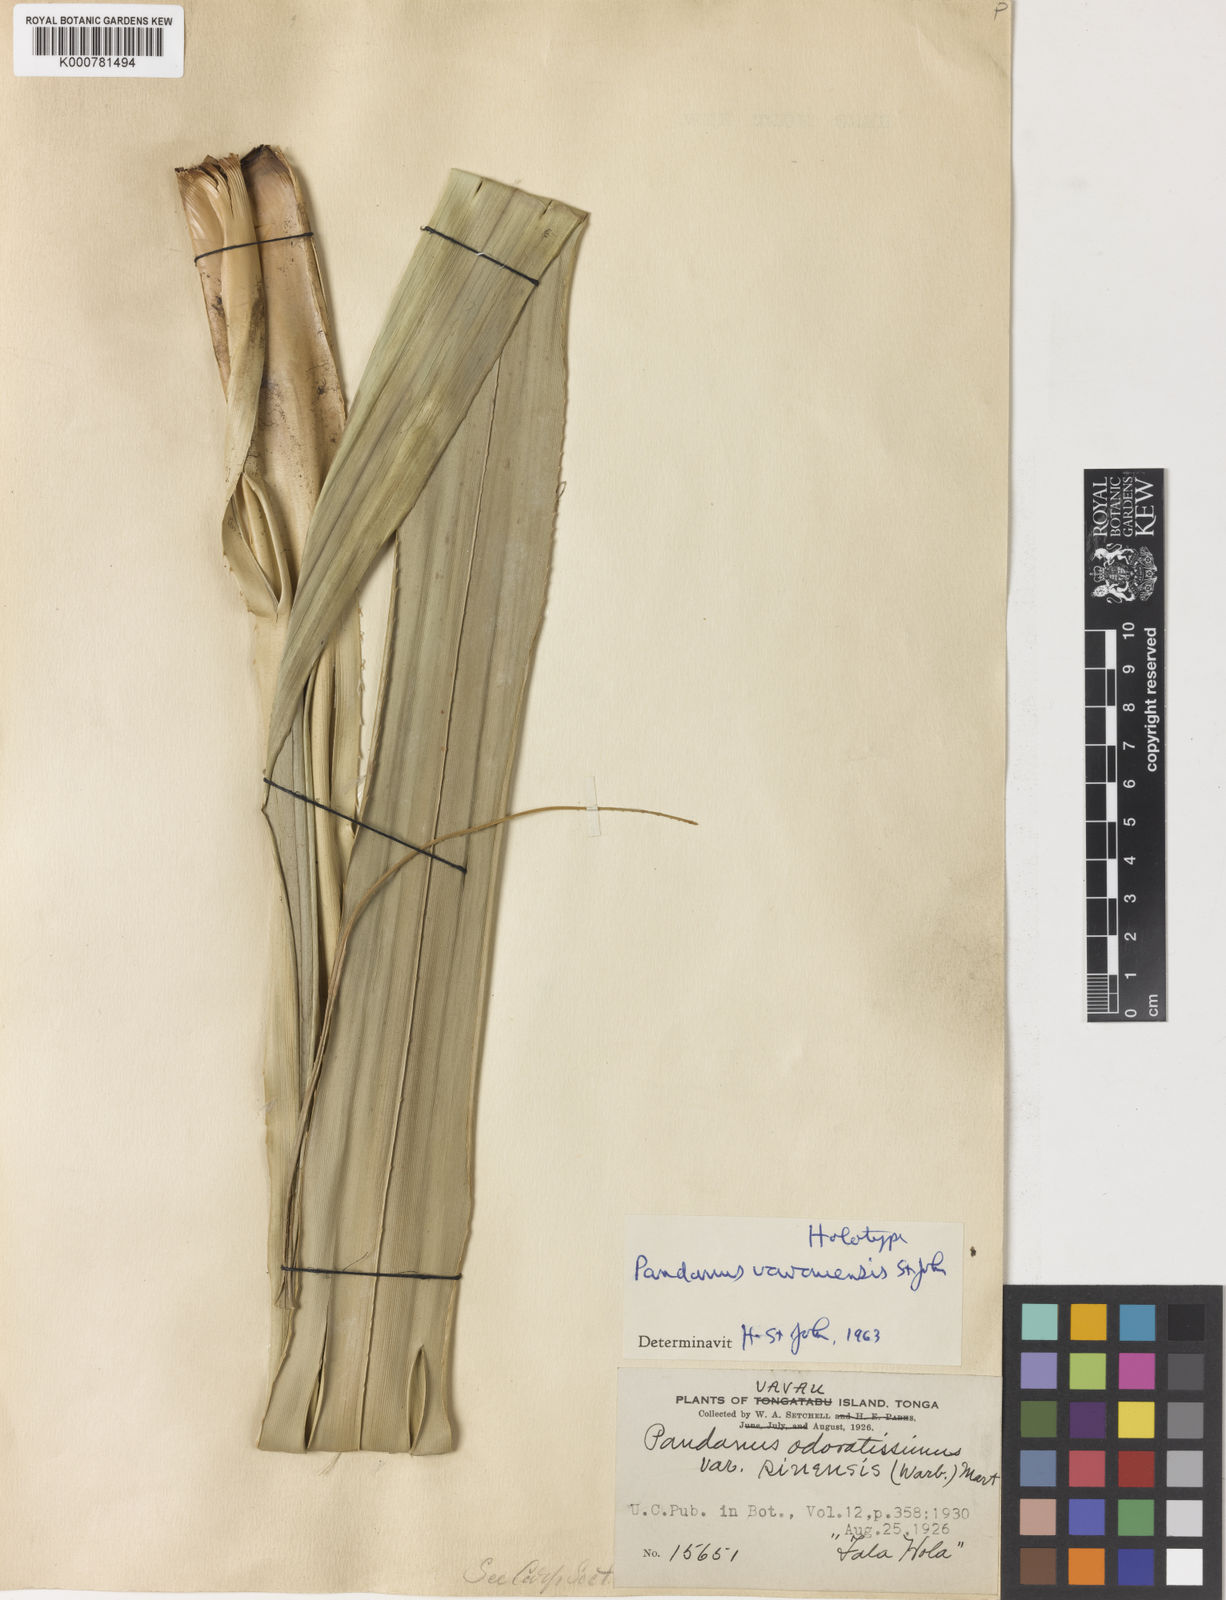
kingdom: Plantae
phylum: Tracheophyta
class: Liliopsida
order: Pandanales
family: Pandanaceae
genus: Pandanus
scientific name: Pandanus vavauensis
